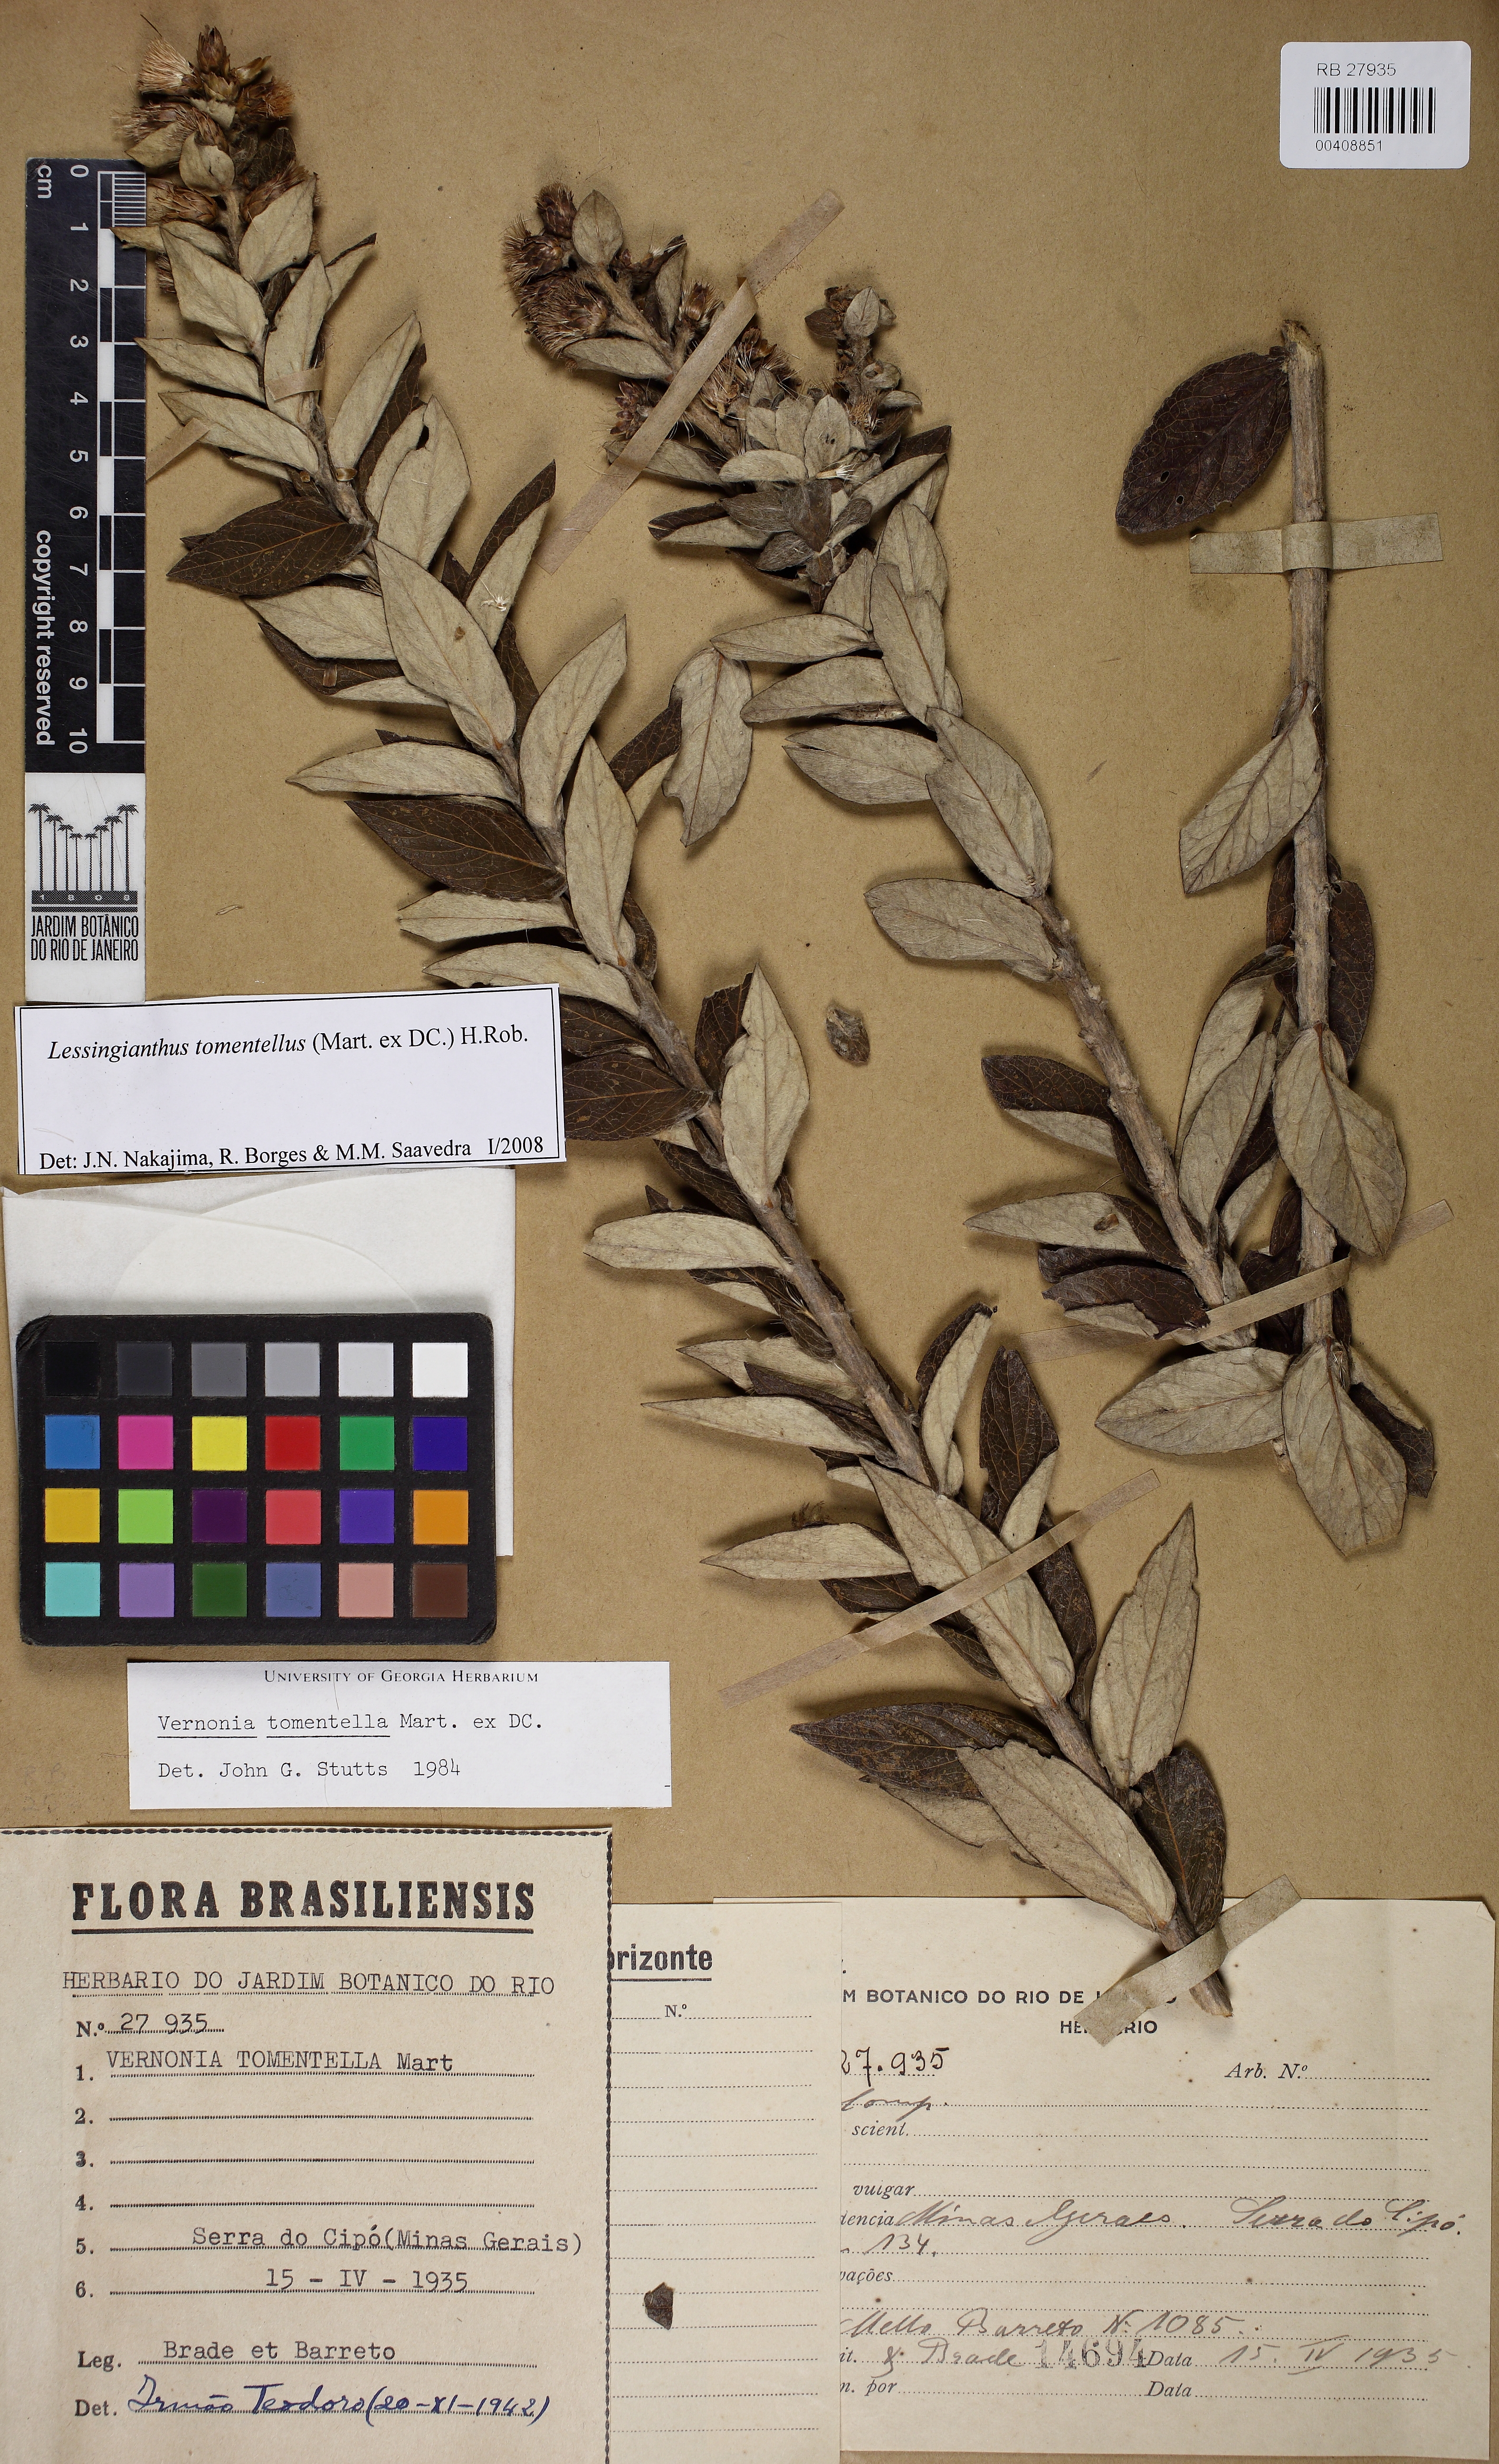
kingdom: Plantae
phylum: Tracheophyta
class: Magnoliopsida
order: Asterales
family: Asteraceae
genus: Lessingianthus
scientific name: Lessingianthus tomentellus
